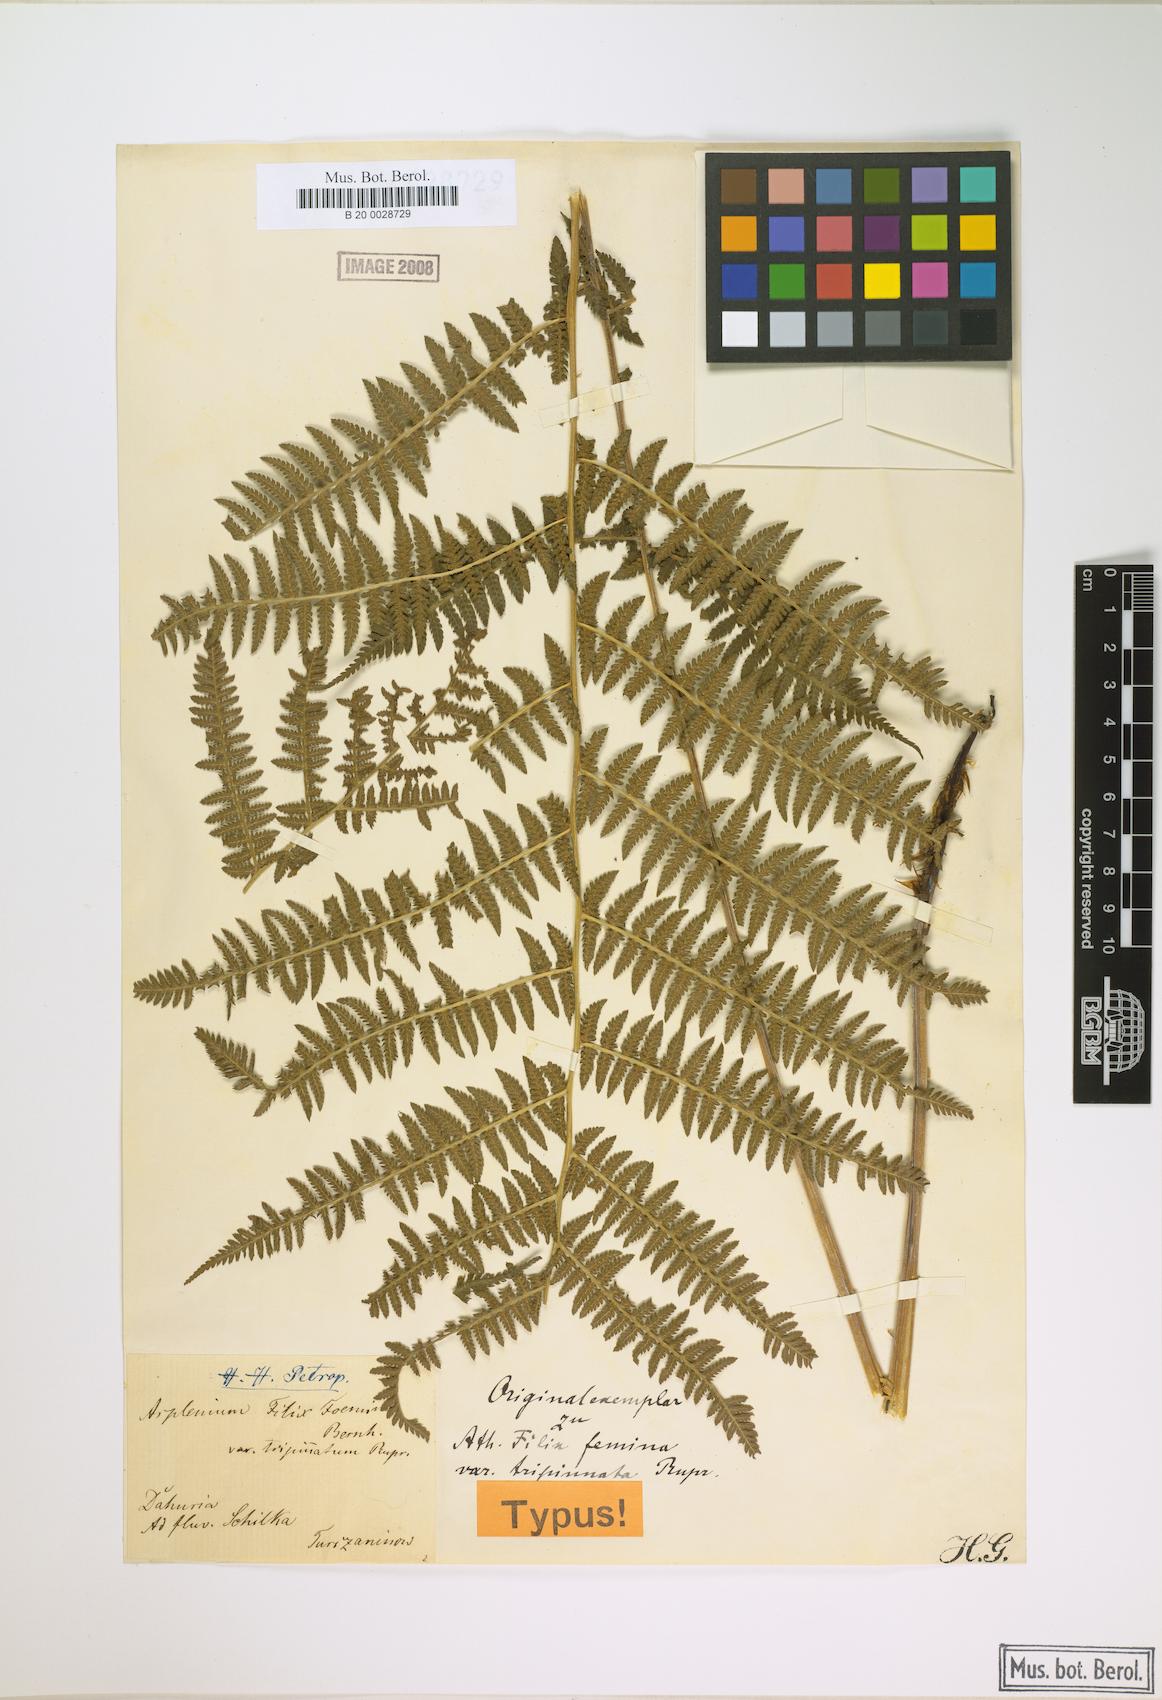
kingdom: Plantae
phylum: Tracheophyta
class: Polypodiopsida
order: Polypodiales
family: Athyriaceae
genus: Athyrium
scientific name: Athyrium filix-femina
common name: Lady fern
